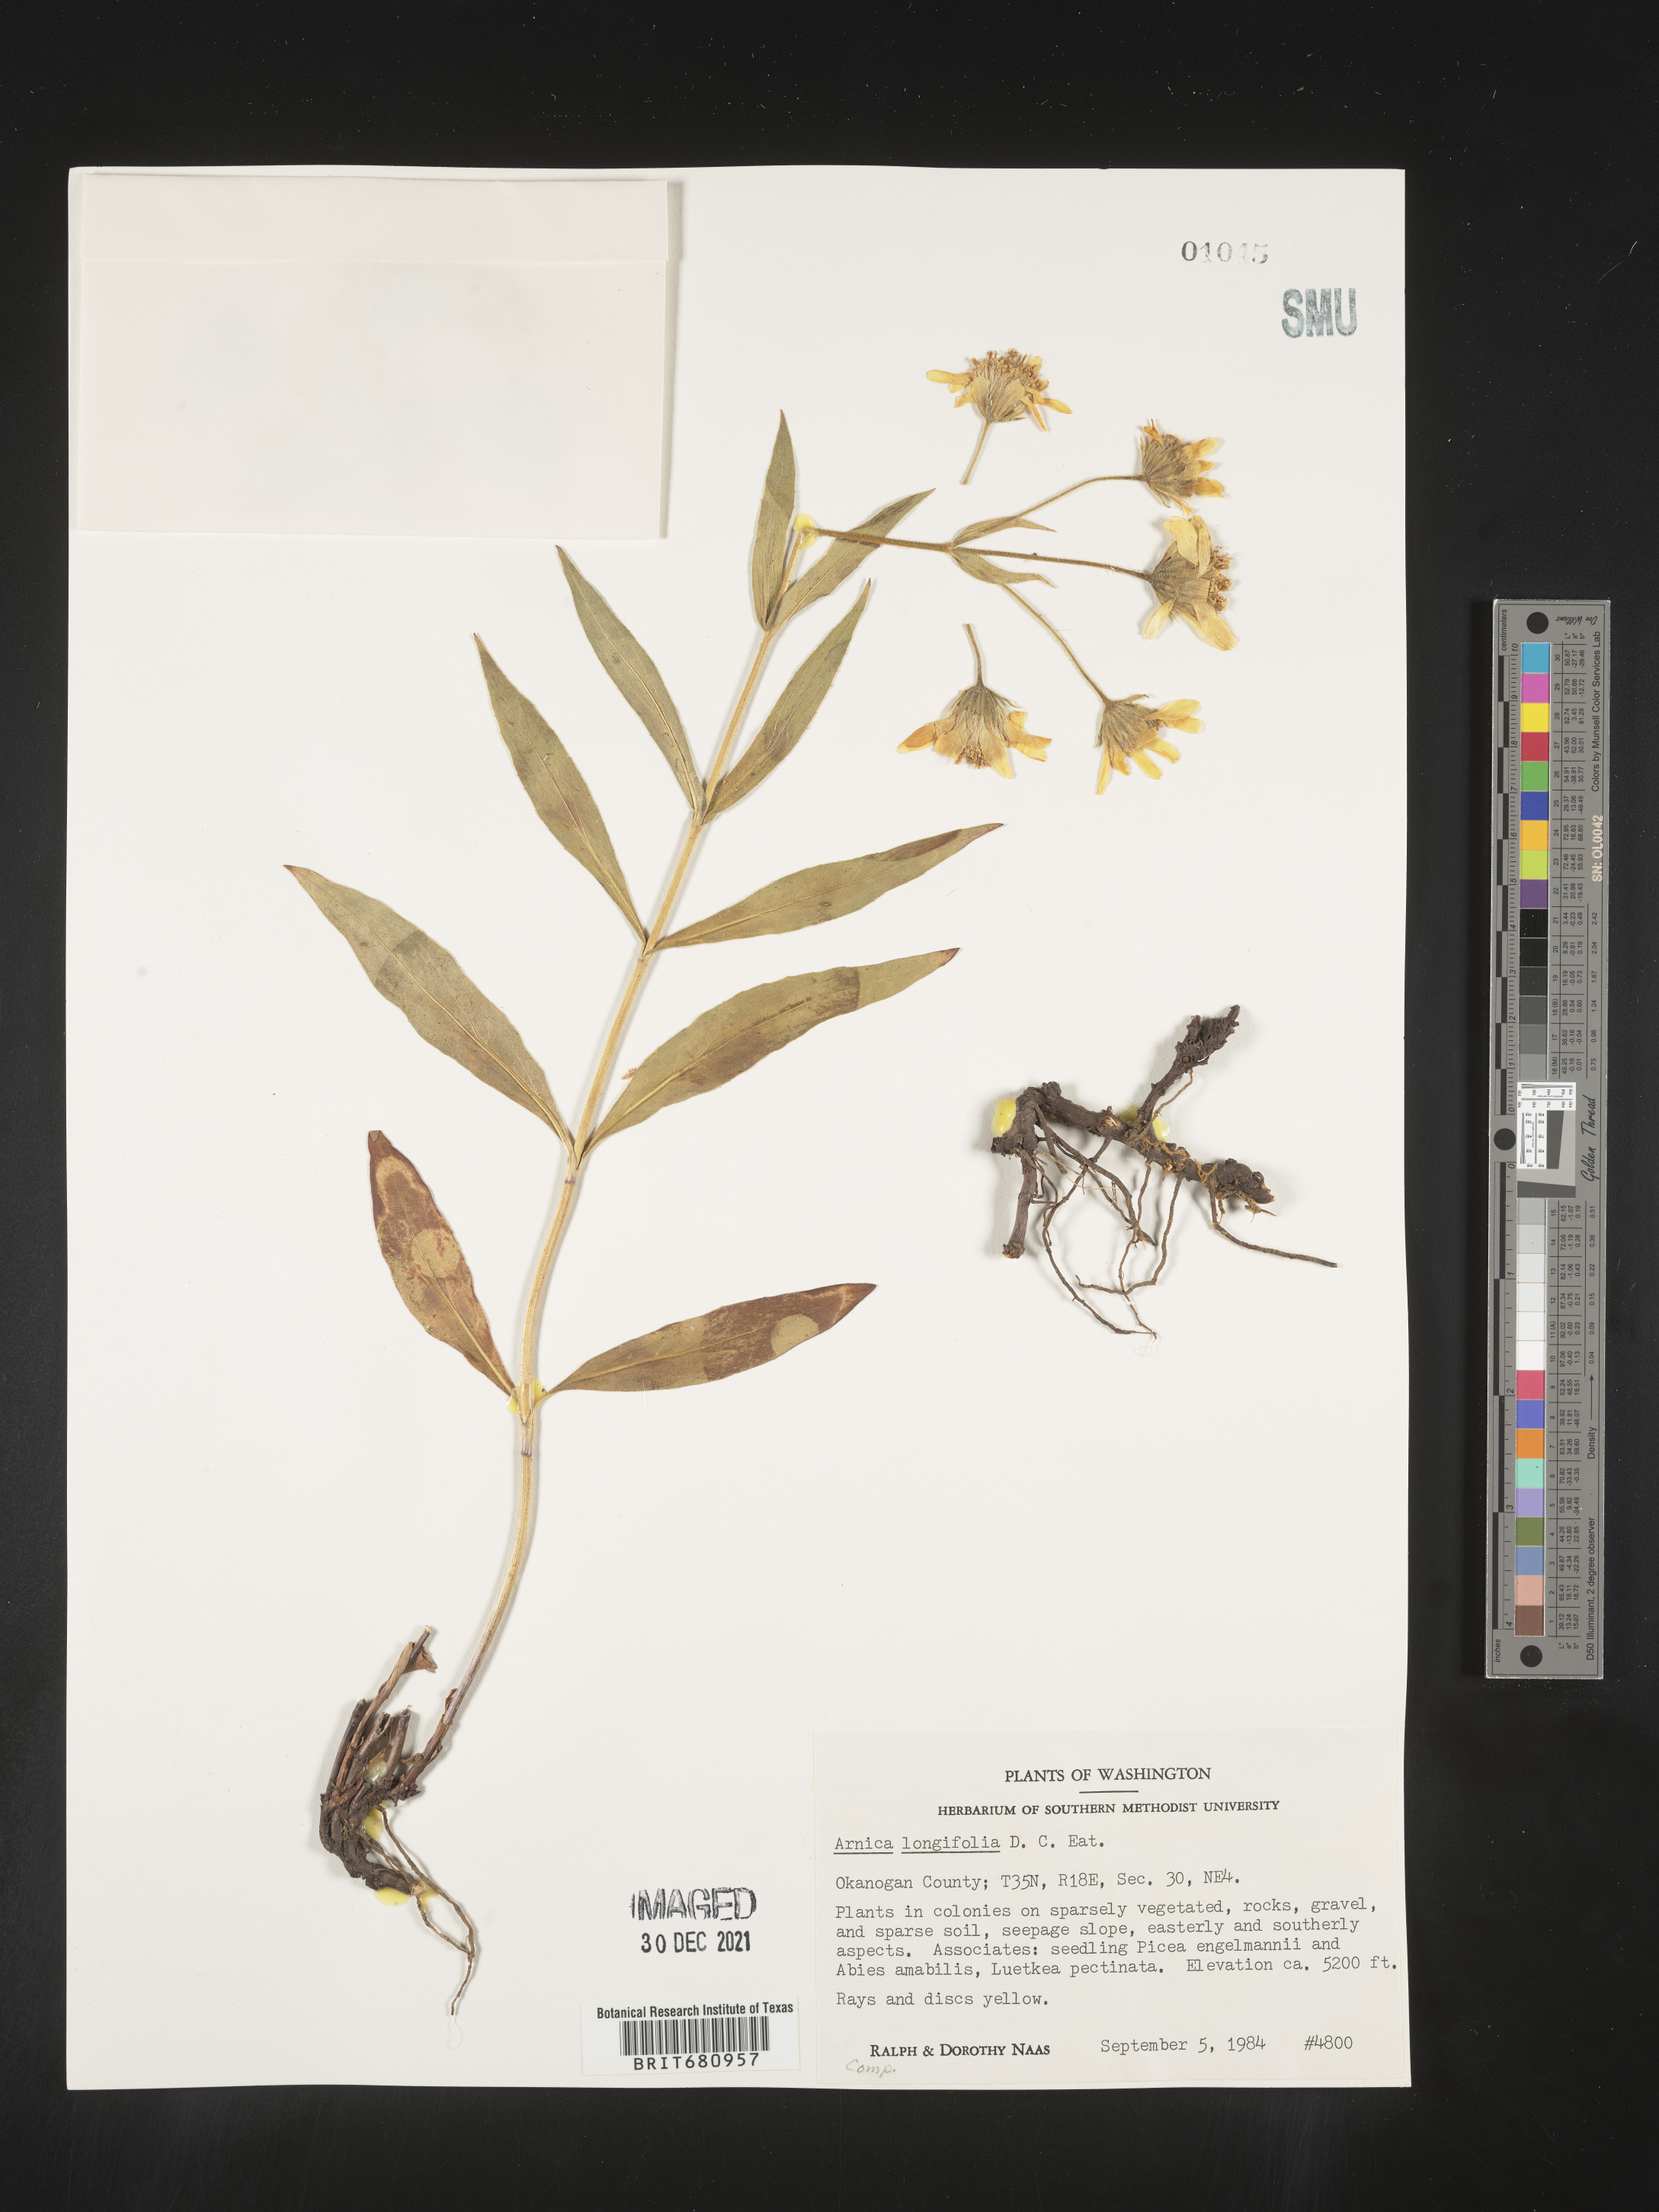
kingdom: Plantae
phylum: Tracheophyta
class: Magnoliopsida
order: Asterales
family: Asteraceae
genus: Arnica
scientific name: Arnica longifolia
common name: Spear-leaf arnica
